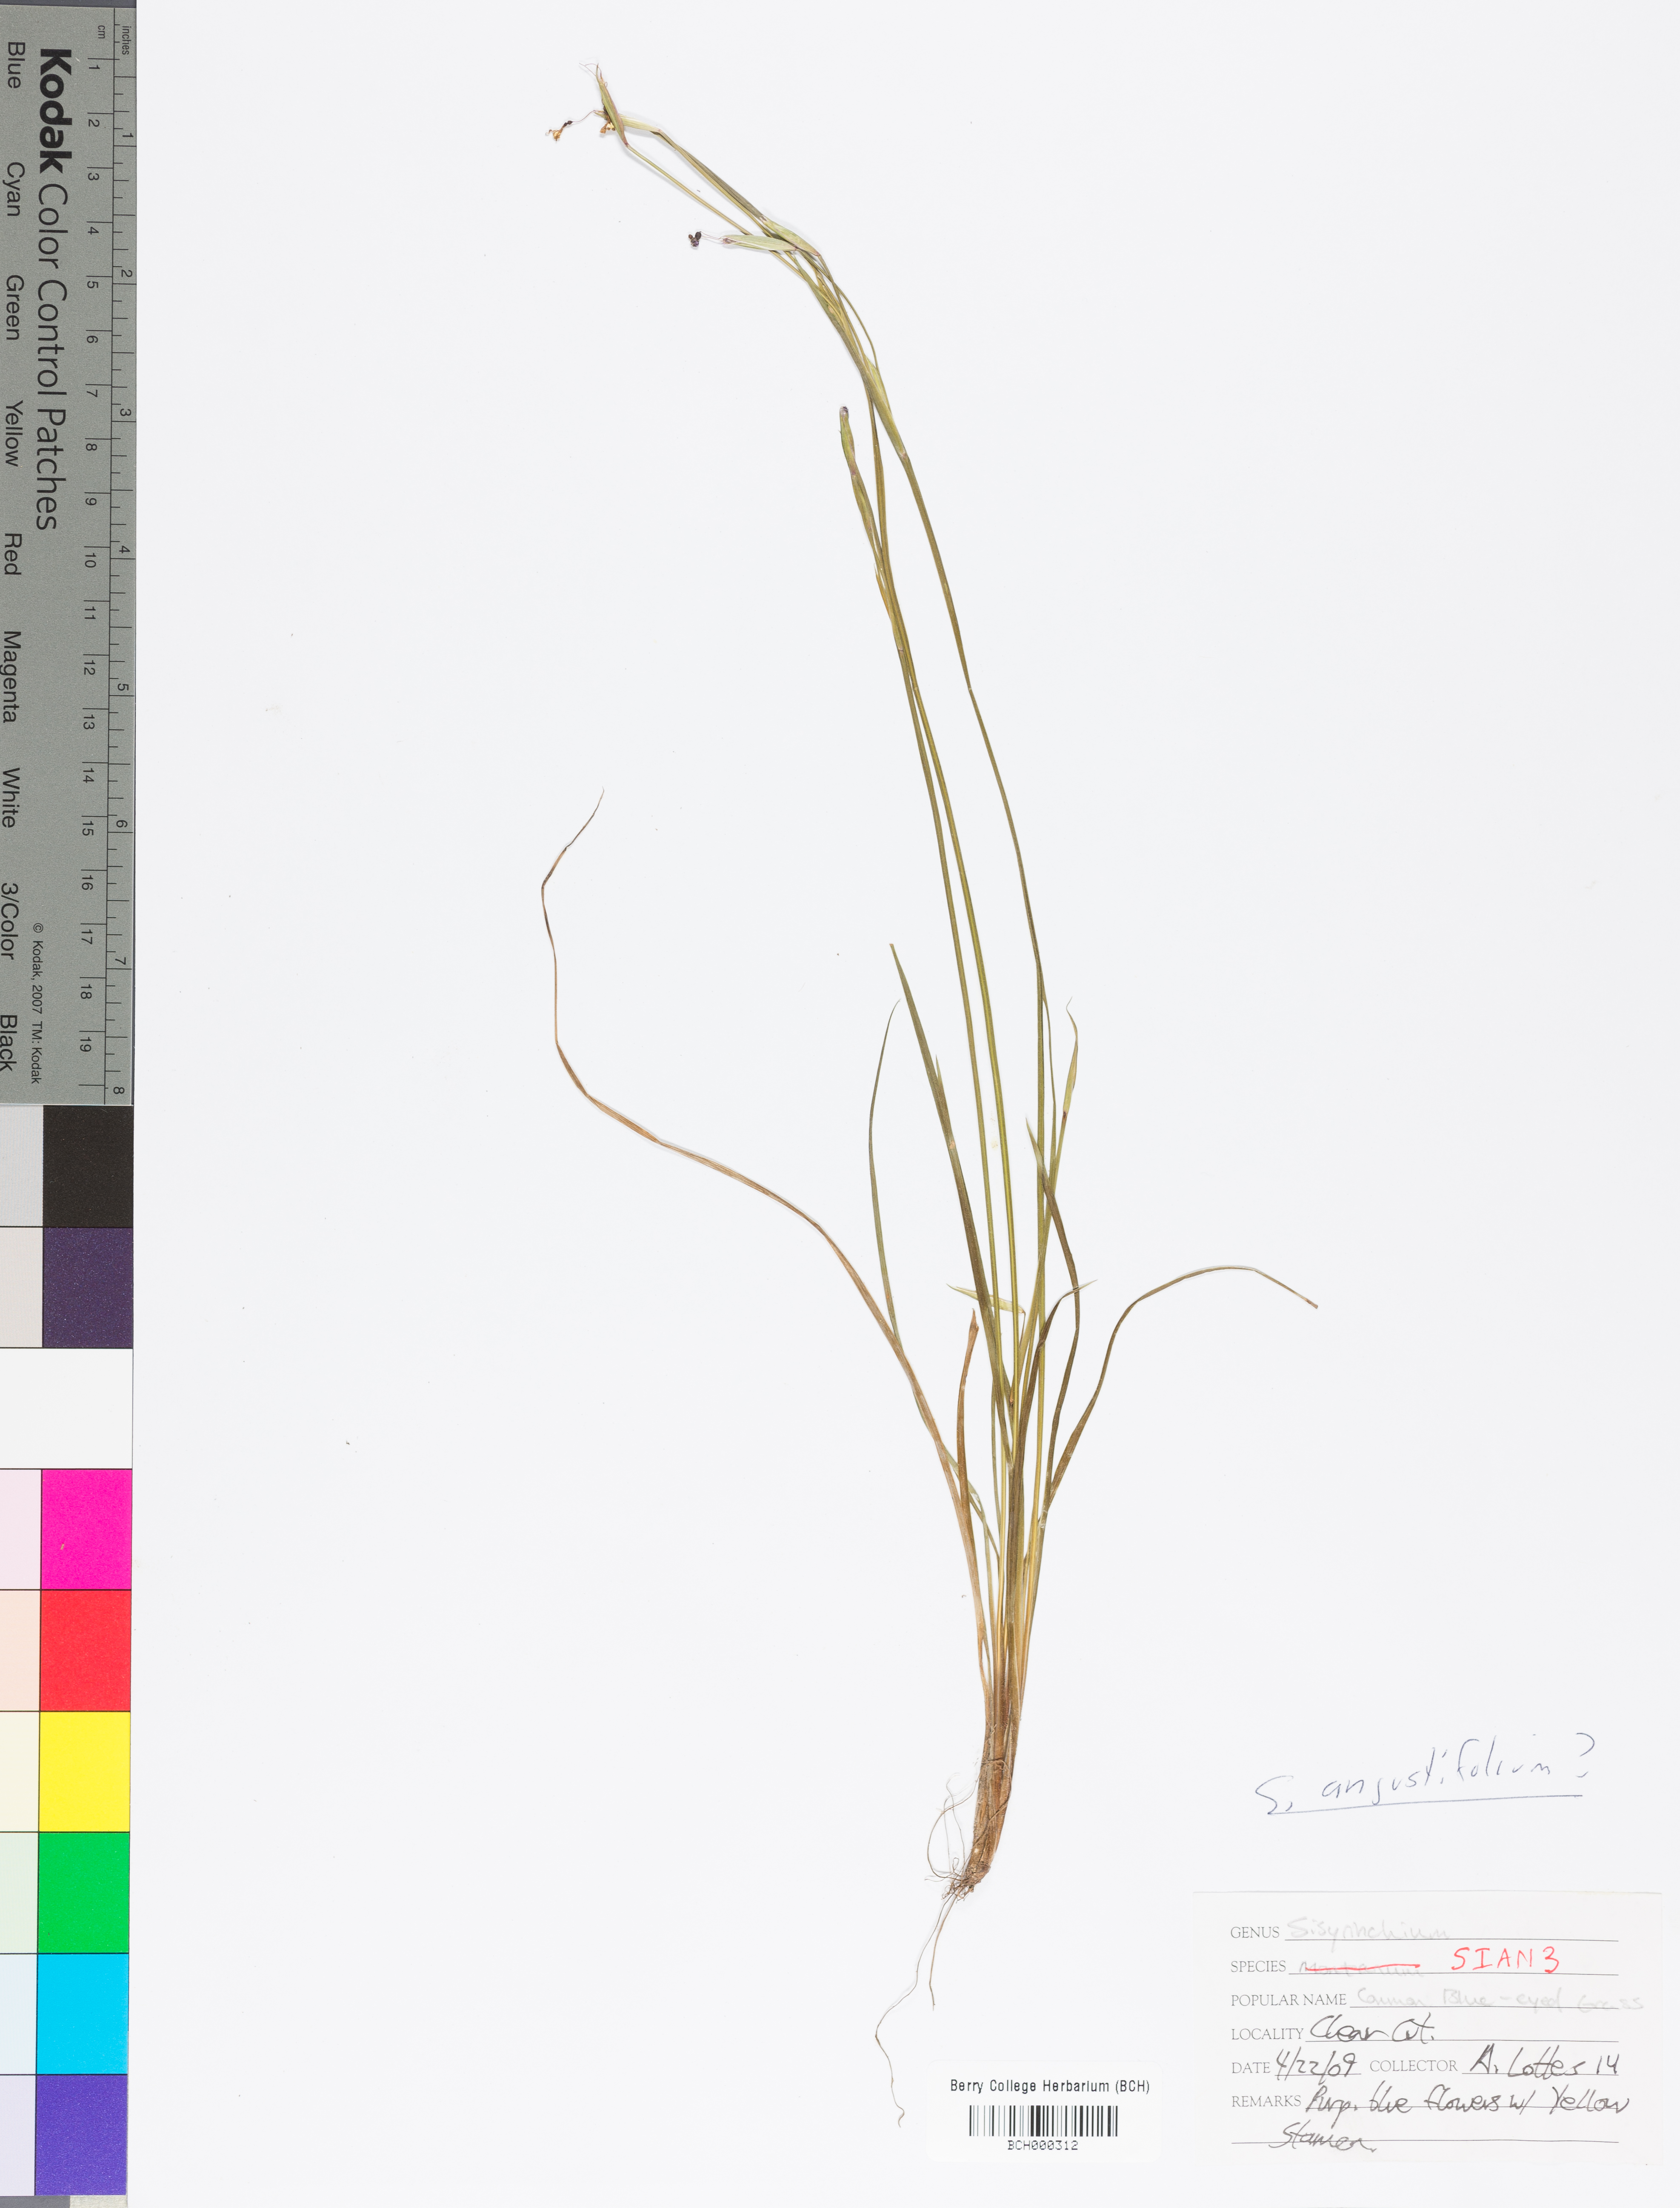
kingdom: Plantae
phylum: Tracheophyta
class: Liliopsida
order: Asparagales
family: Iridaceae
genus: Sisyrinchium
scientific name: Sisyrinchium angustifolium
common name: Narrow-leaf blue-eyed-grass
